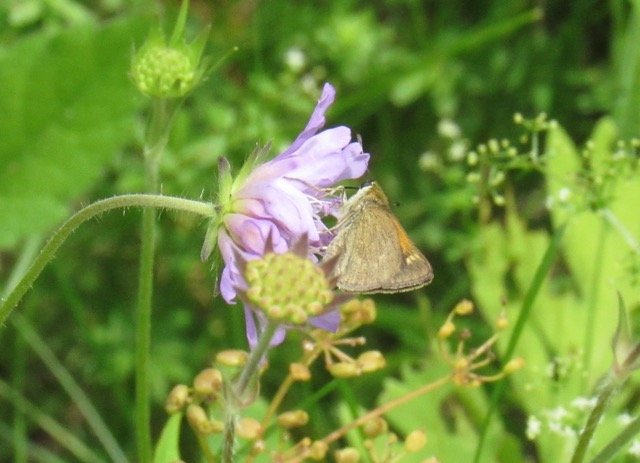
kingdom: Animalia
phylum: Arthropoda
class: Insecta
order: Lepidoptera
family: Hesperiidae
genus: Polites
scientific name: Polites themistocles
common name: Tawny-edged Skipper
